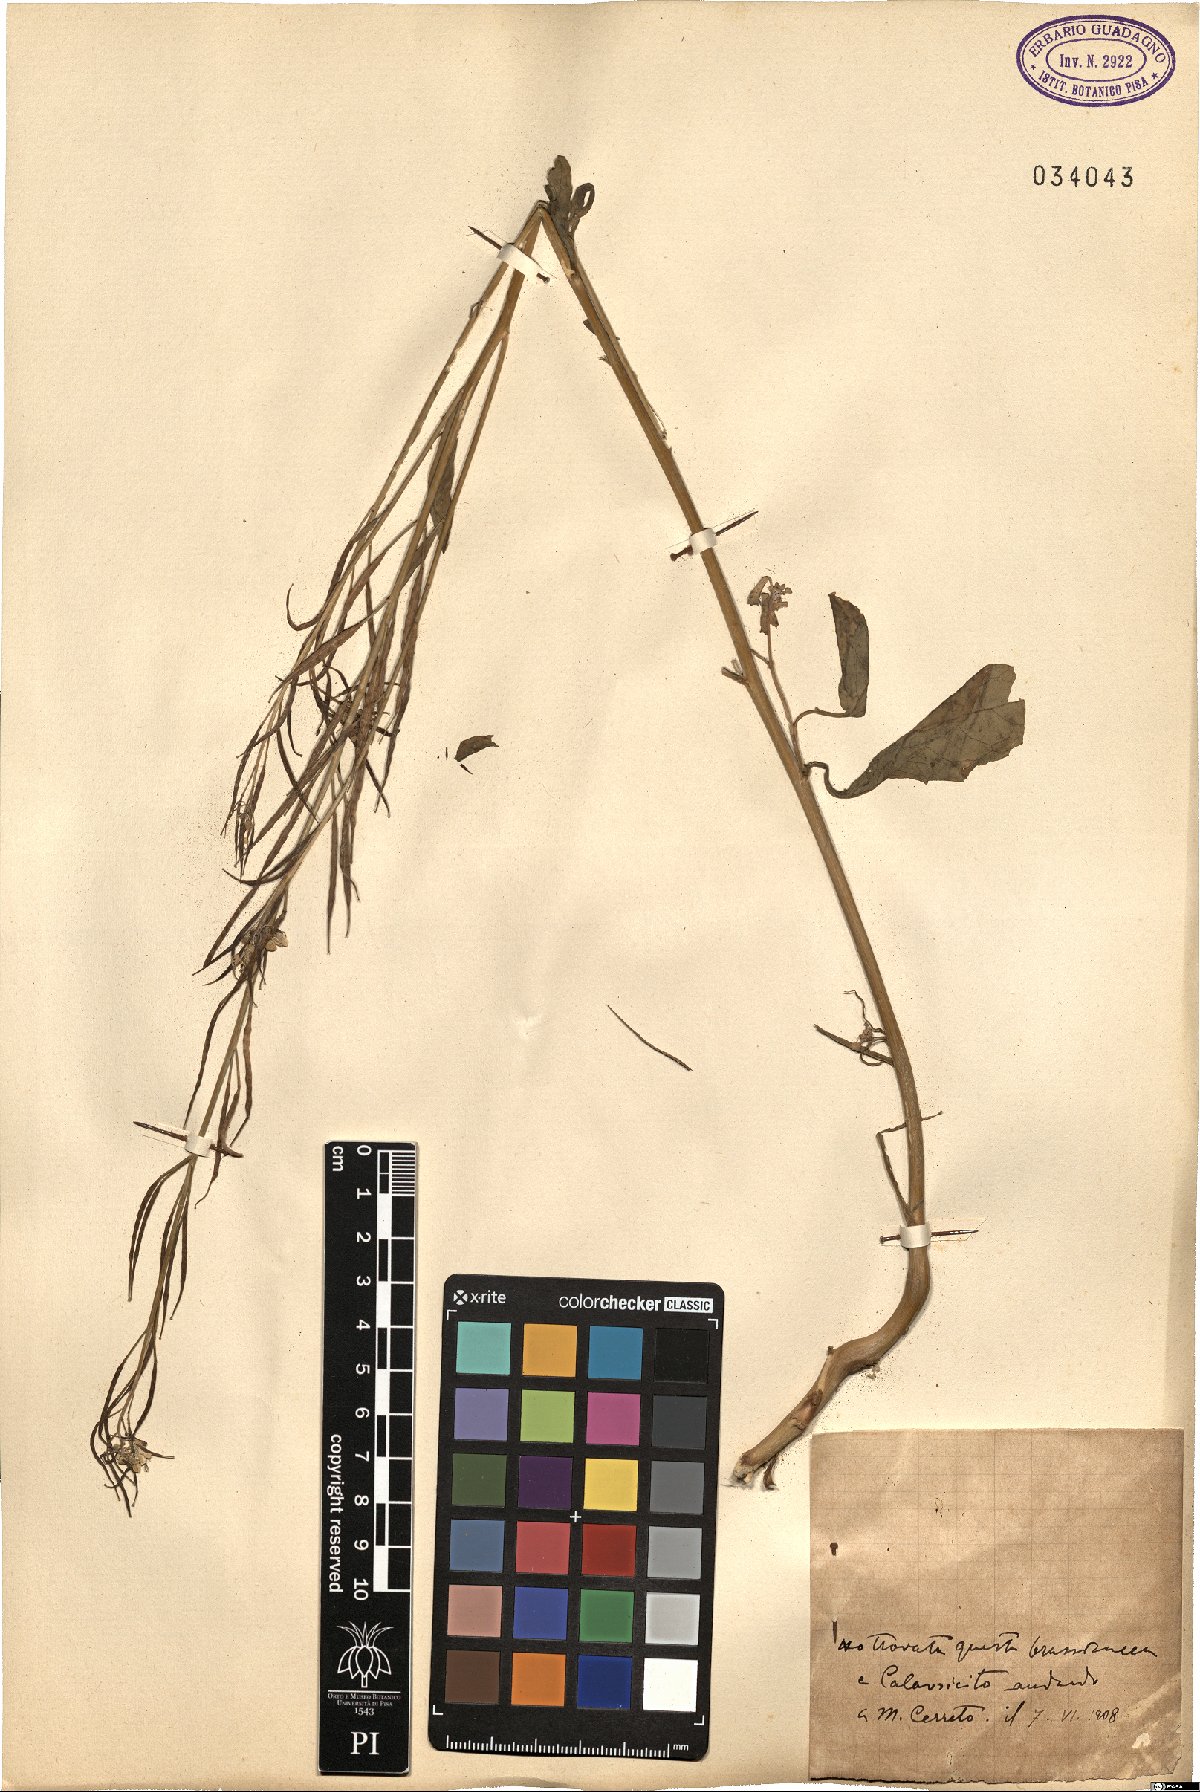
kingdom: Plantae
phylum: Tracheophyta
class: Magnoliopsida
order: Brassicales
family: Brassicaceae
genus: Barbarea
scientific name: Barbarea
